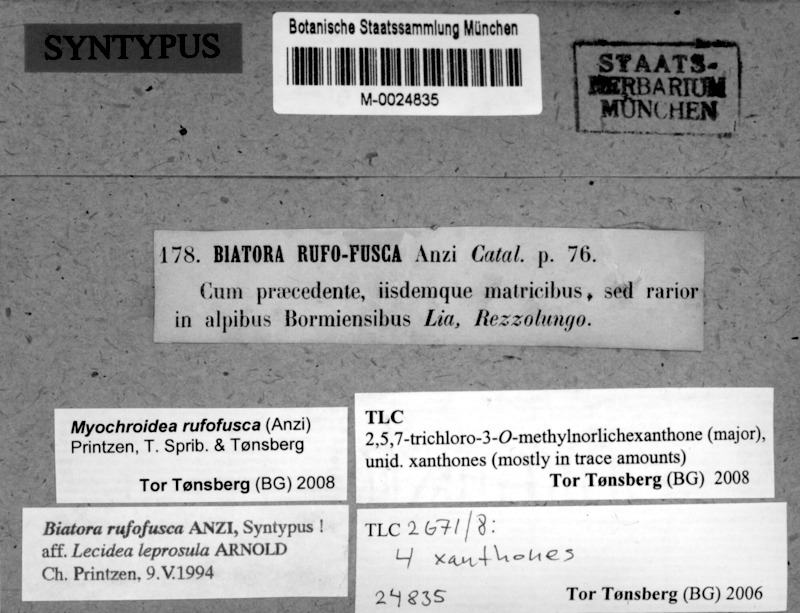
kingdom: Fungi
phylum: Ascomycota
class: Lecanoromycetes
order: Lecanorales
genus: Myochroidea
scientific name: Myochroidea rufofusca
